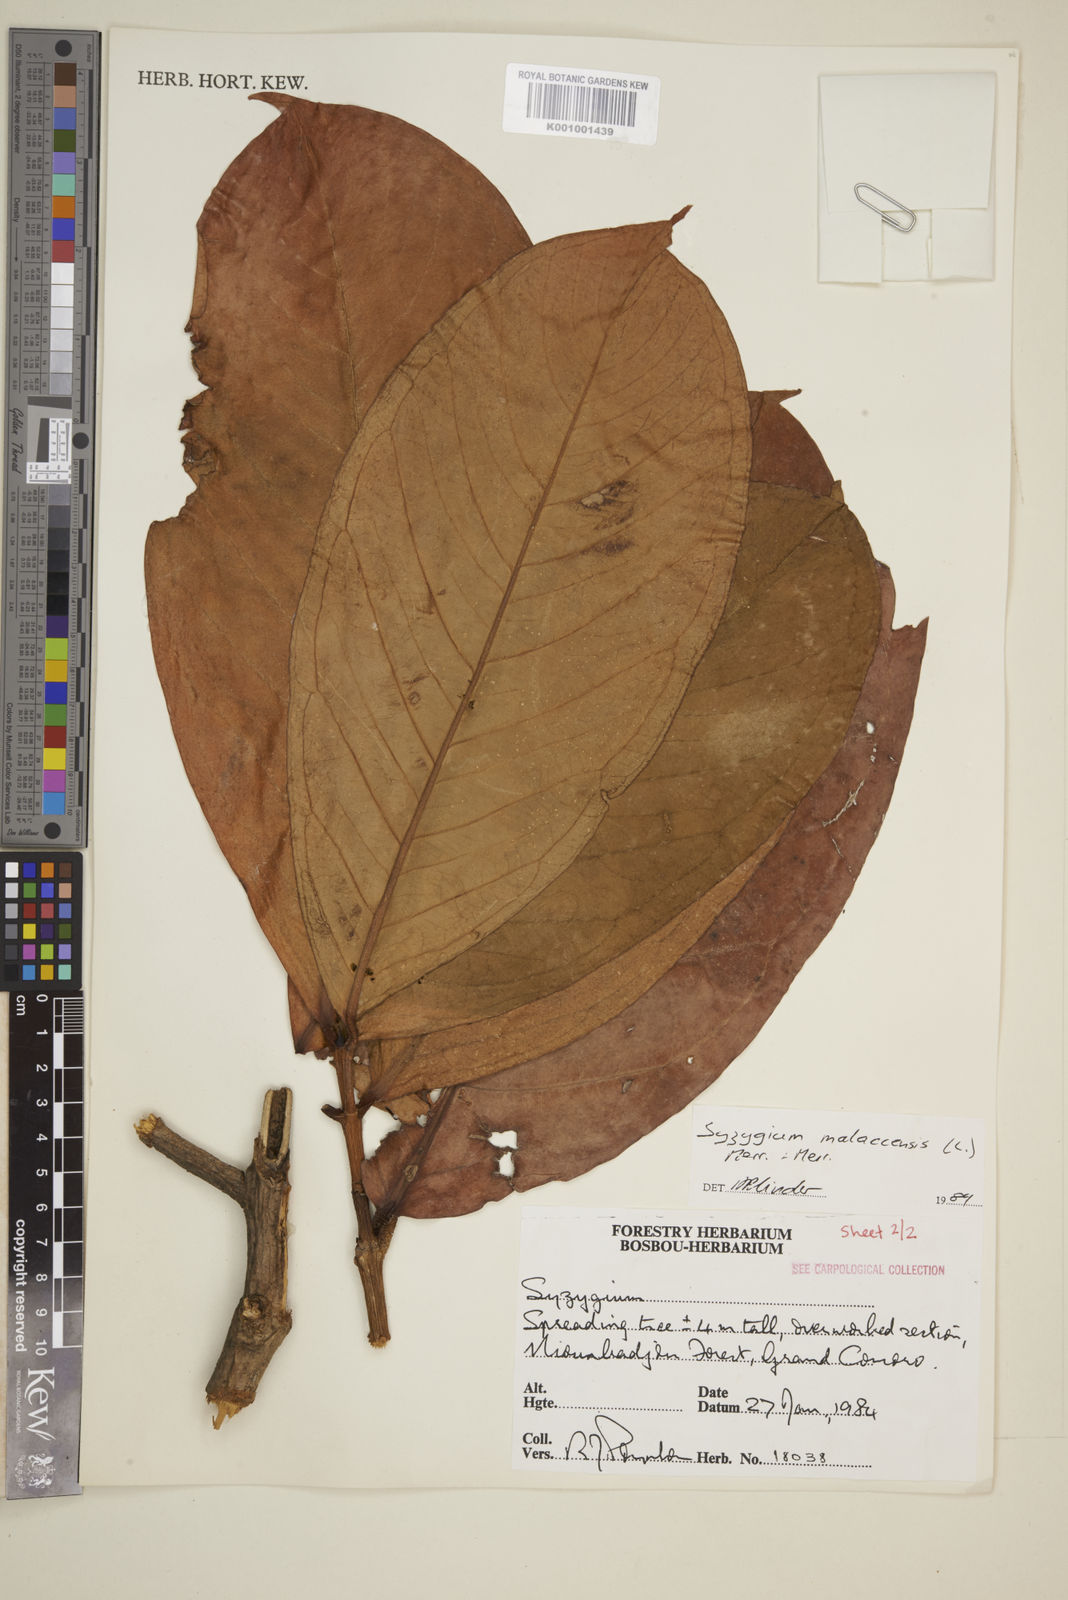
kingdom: Plantae
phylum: Tracheophyta
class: Magnoliopsida
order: Myrtales
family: Myrtaceae
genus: Syzygium
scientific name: Syzygium malaccense
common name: Malaysian apple
